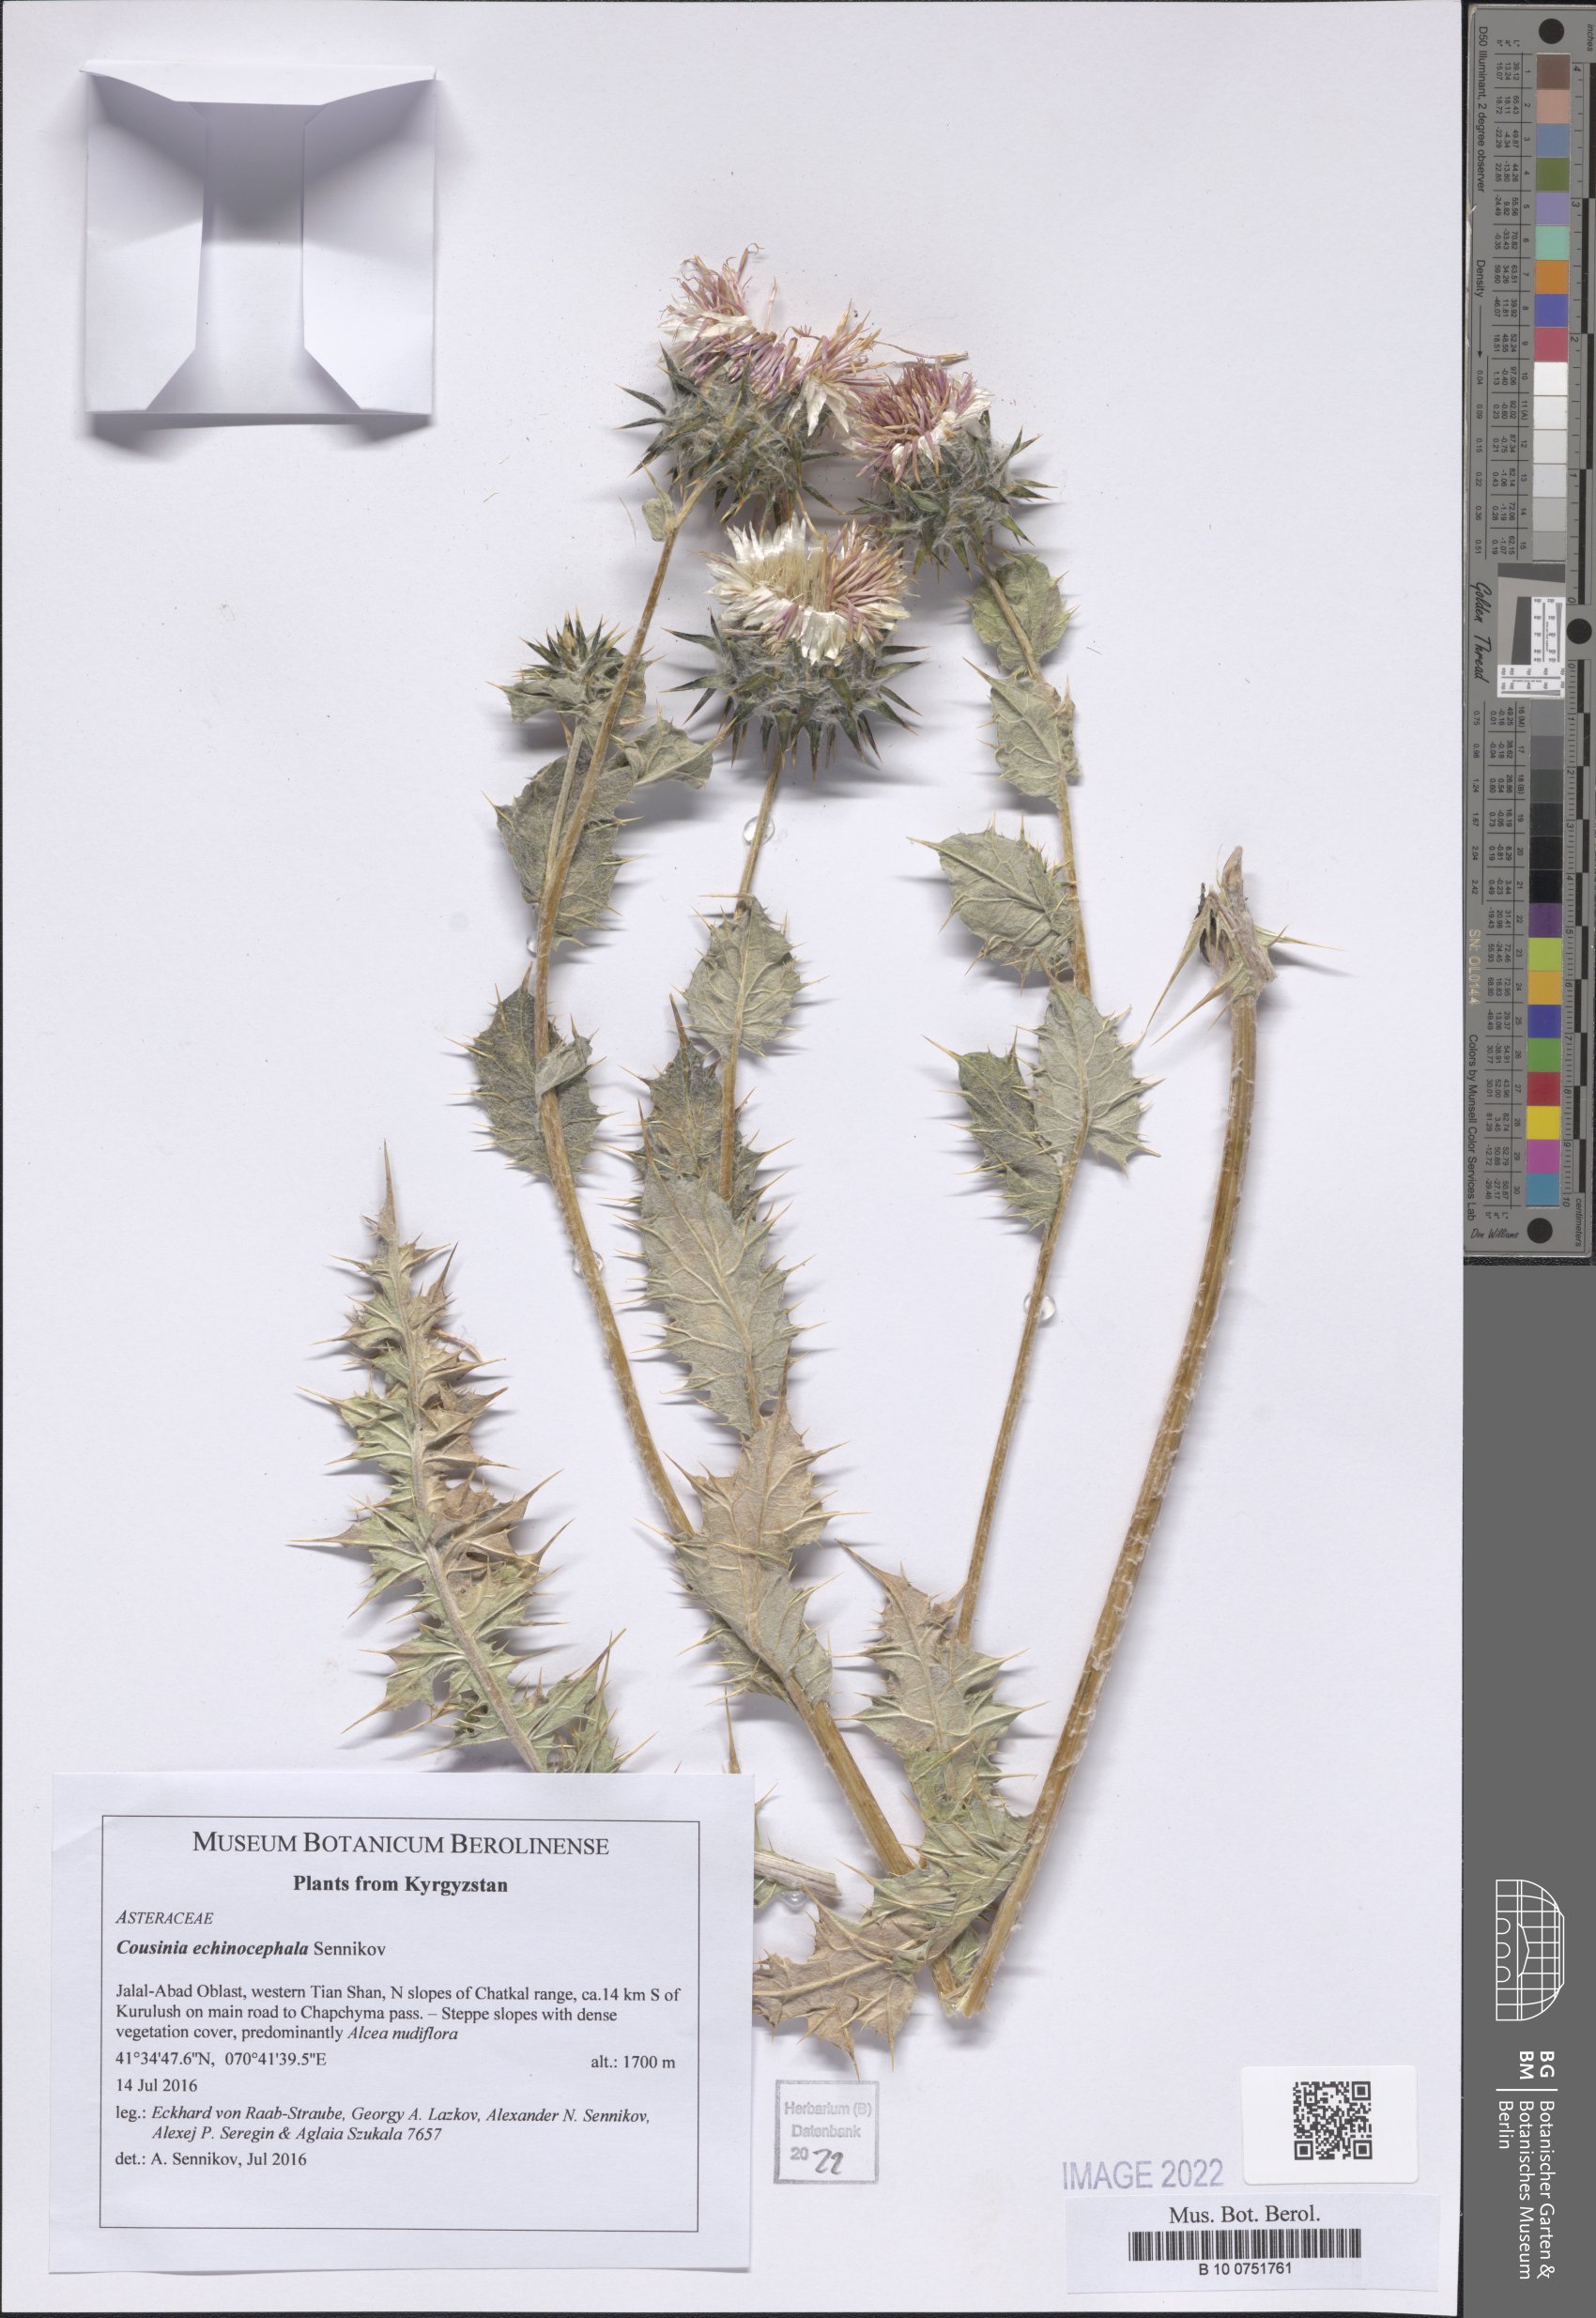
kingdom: Plantae
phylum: Tracheophyta
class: Magnoliopsida
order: Asterales
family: Asteraceae
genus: Cousinia
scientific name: Cousinia echinocephala
